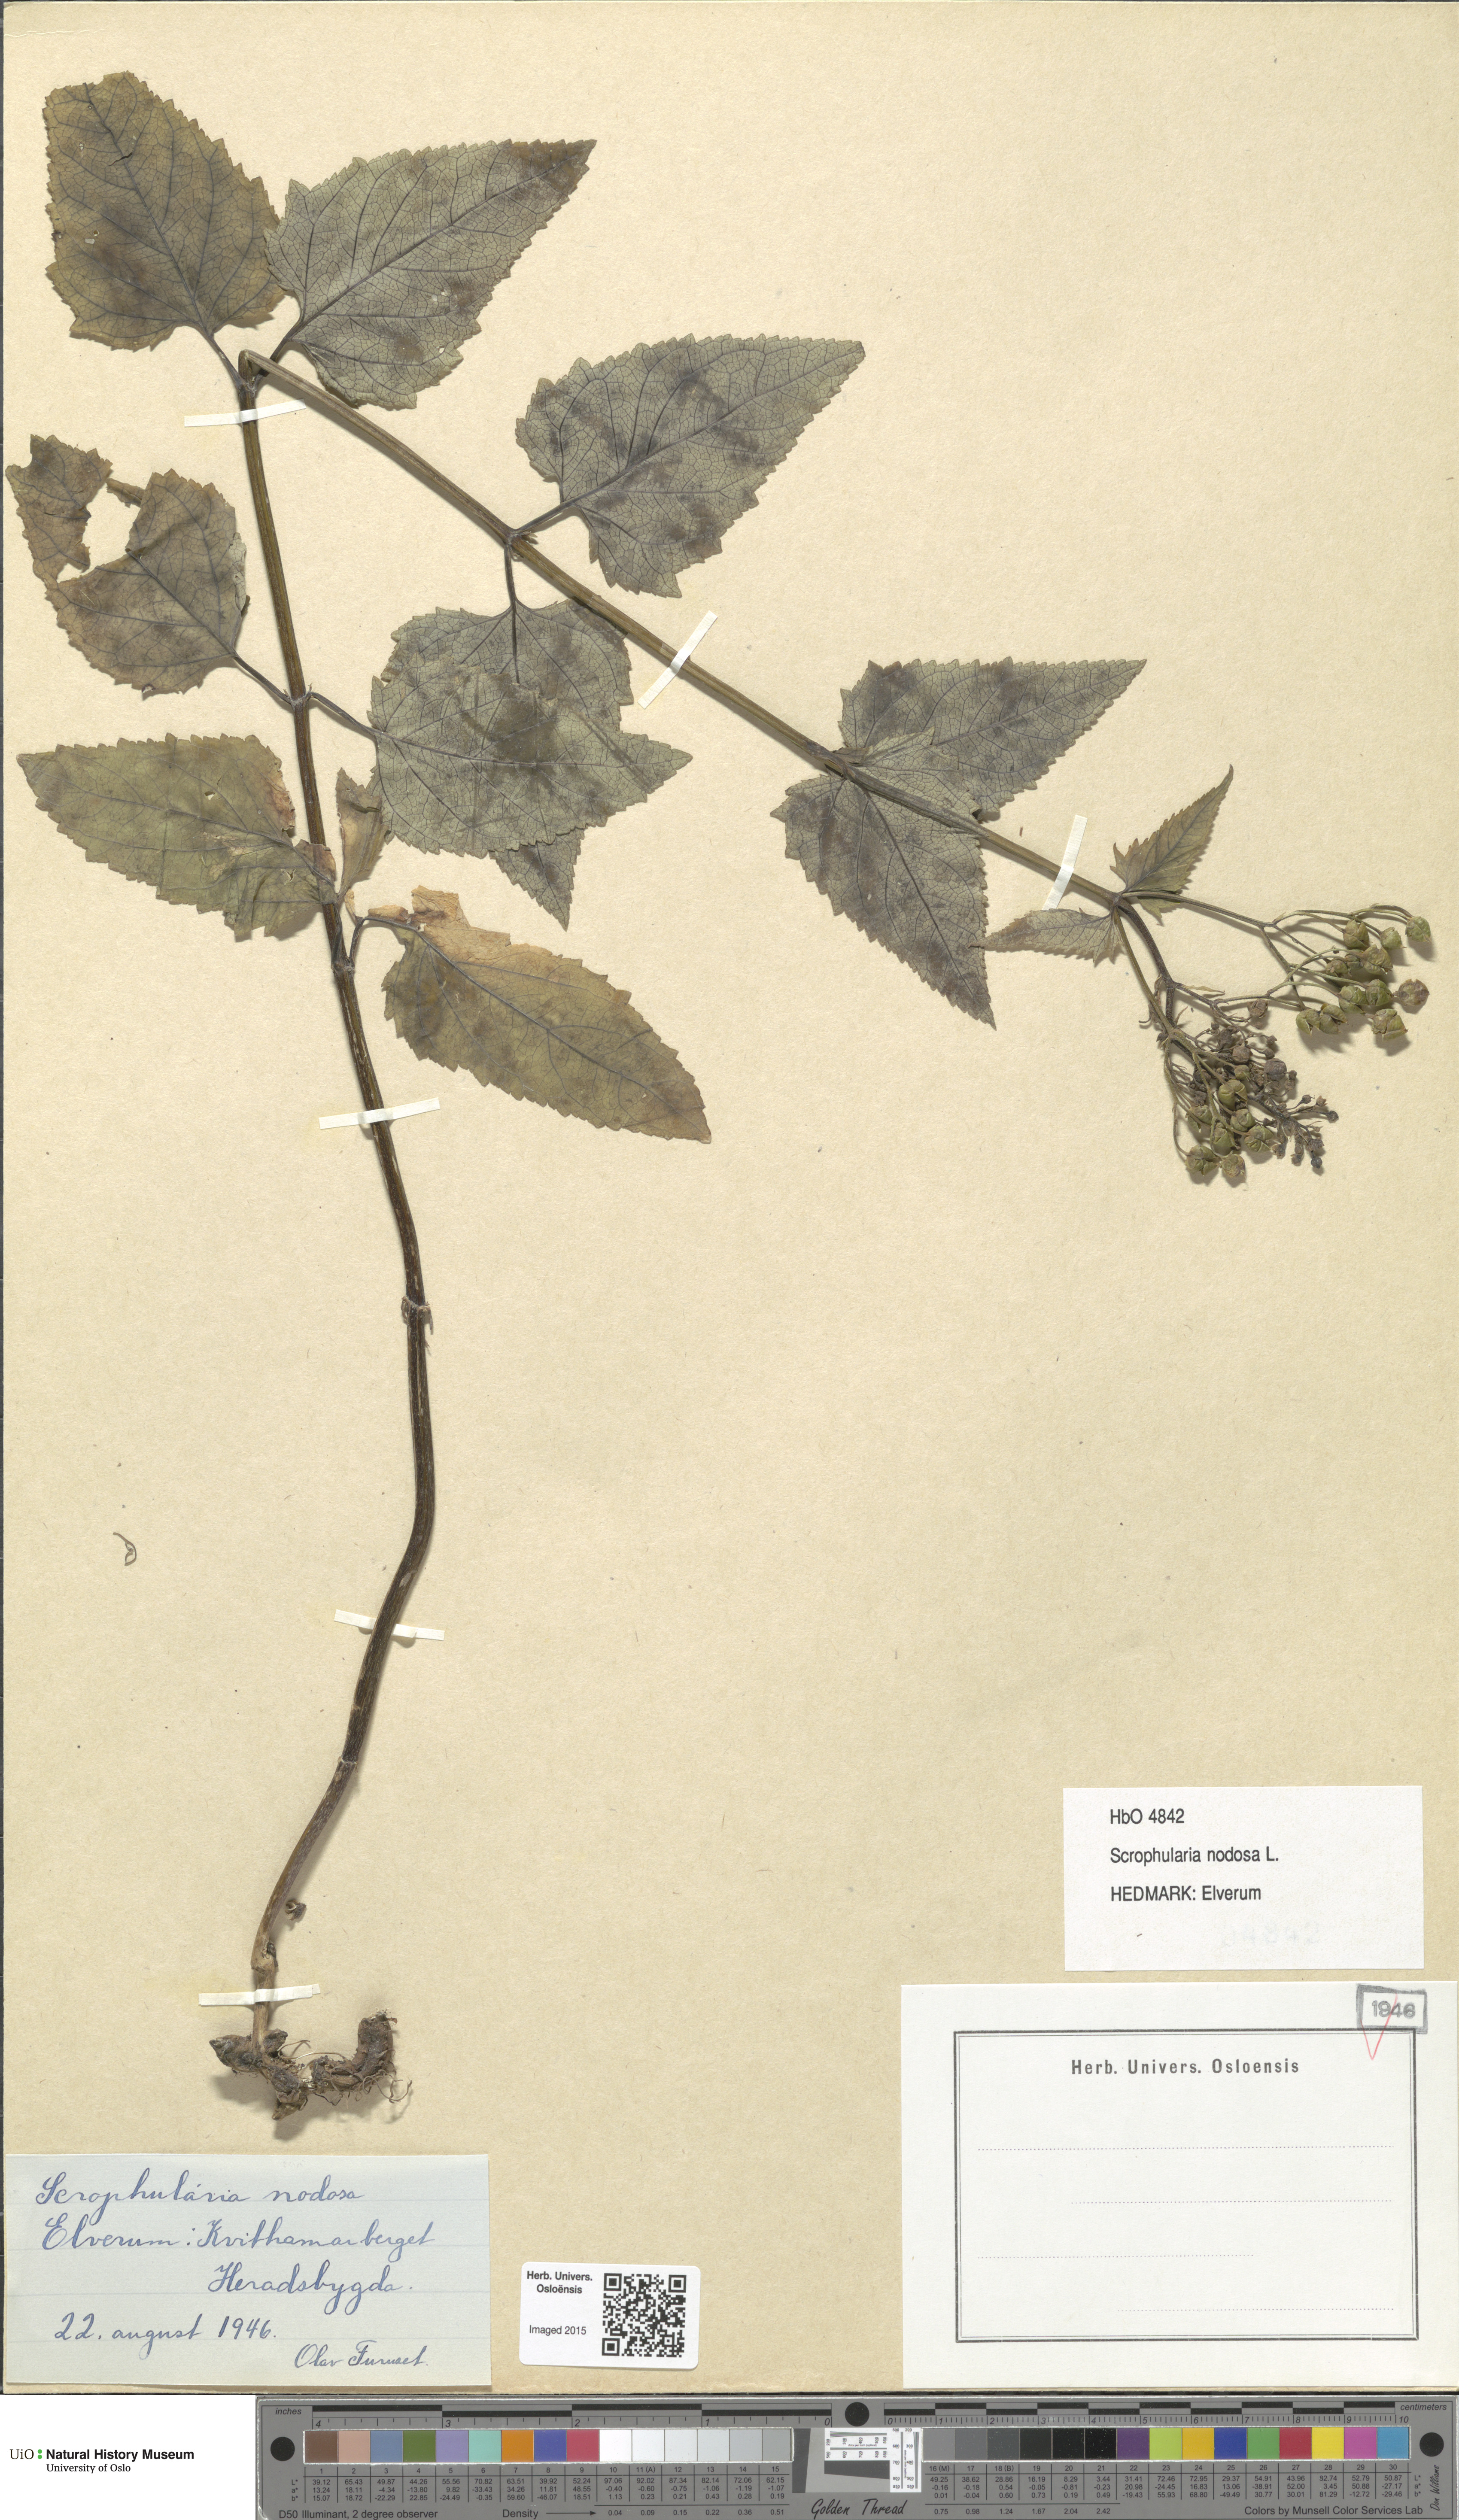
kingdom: Plantae
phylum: Tracheophyta
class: Magnoliopsida
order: Lamiales
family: Scrophulariaceae
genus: Scrophularia
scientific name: Scrophularia nodosa
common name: Common figwort
